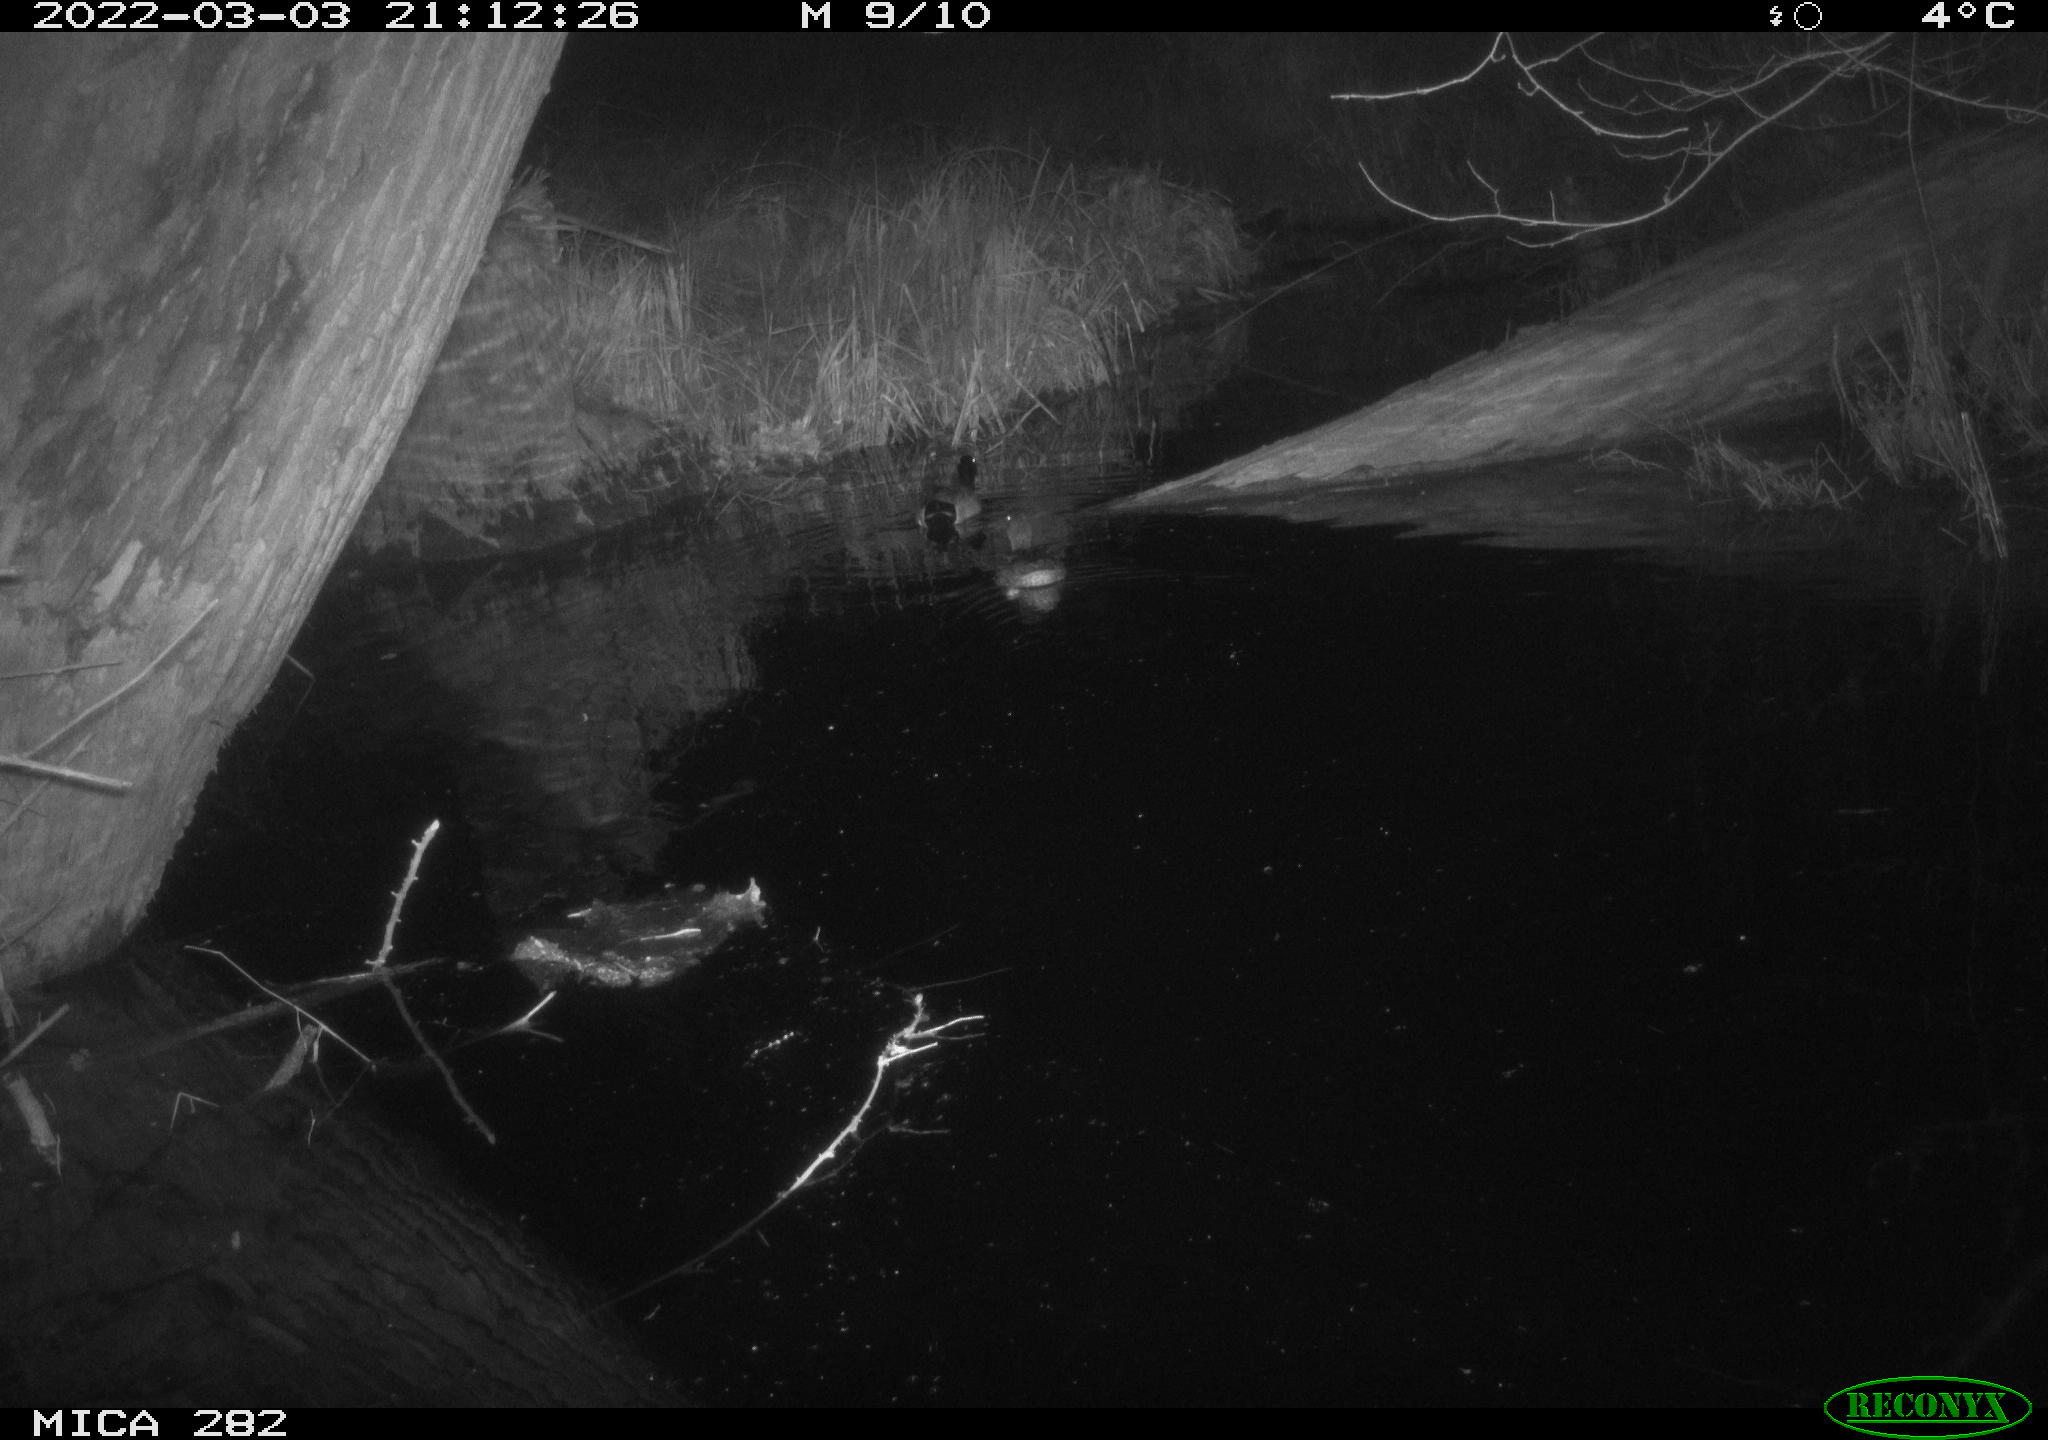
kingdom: Animalia
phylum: Chordata
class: Aves
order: Anseriformes
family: Anatidae
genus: Anas
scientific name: Anas platyrhynchos
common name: Mallard
